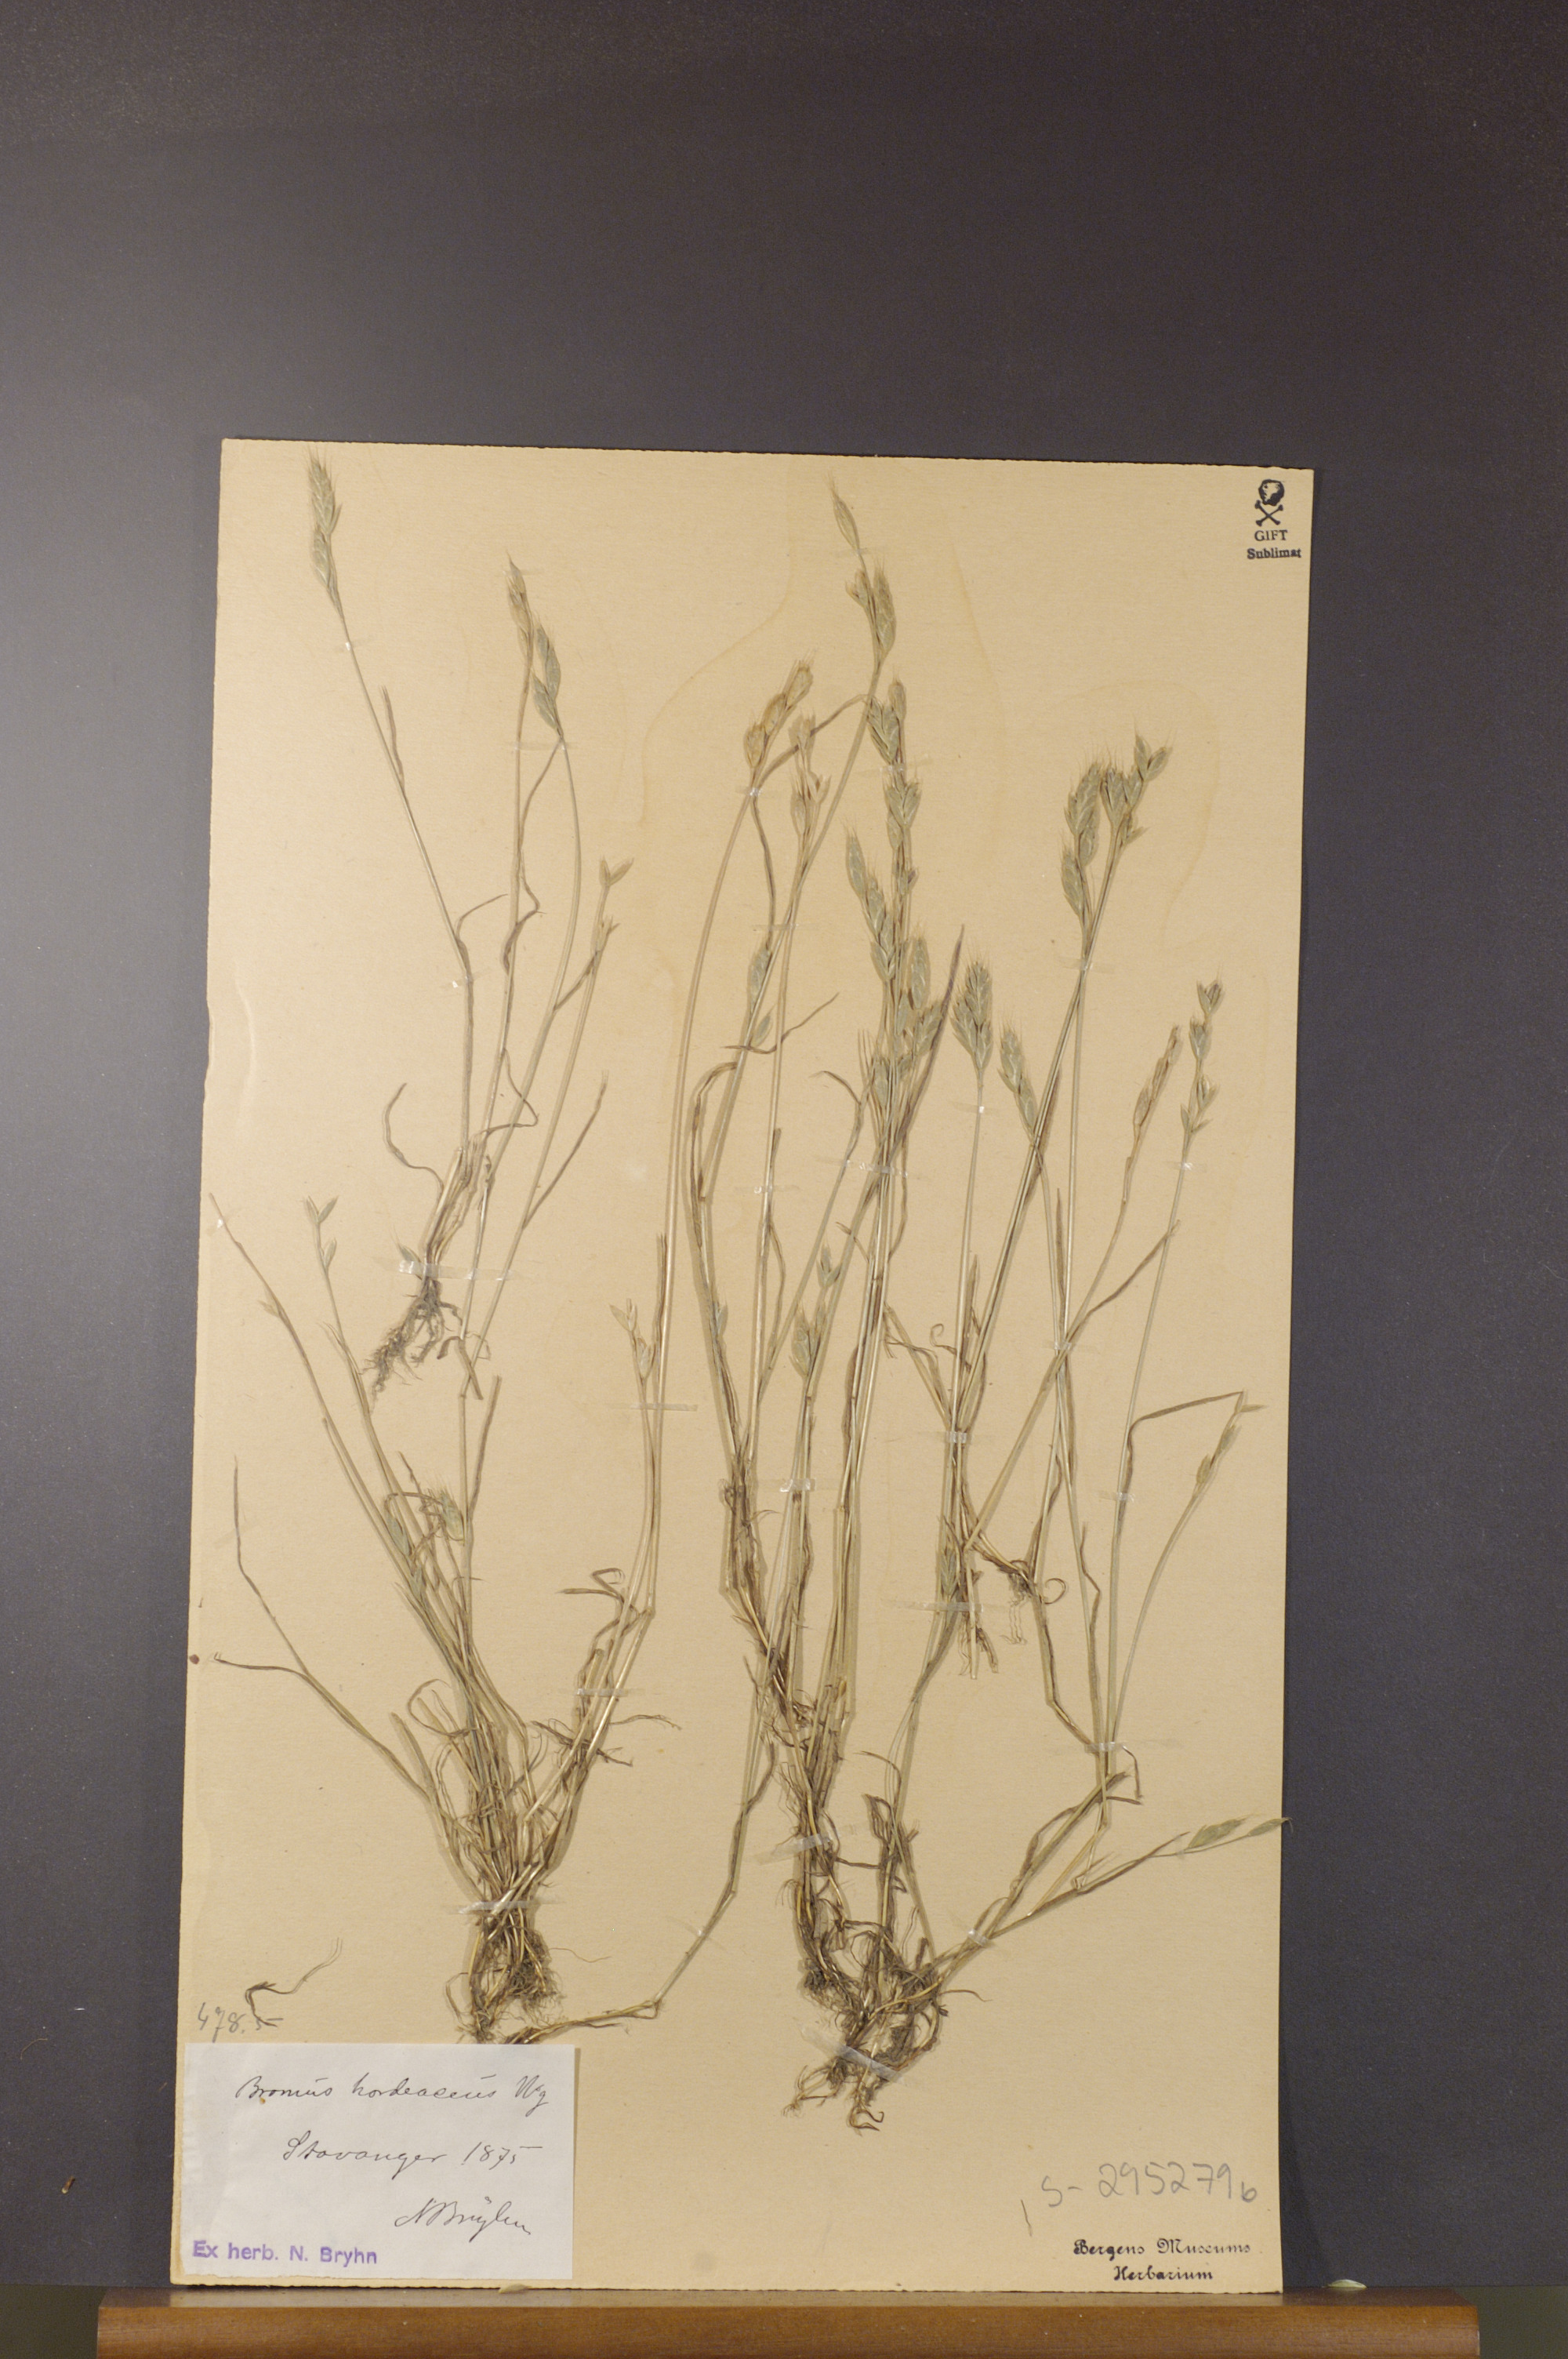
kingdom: Plantae
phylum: Tracheophyta
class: Liliopsida
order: Poales
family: Poaceae
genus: Bromus
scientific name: Bromus hordeaceus
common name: Soft brome
